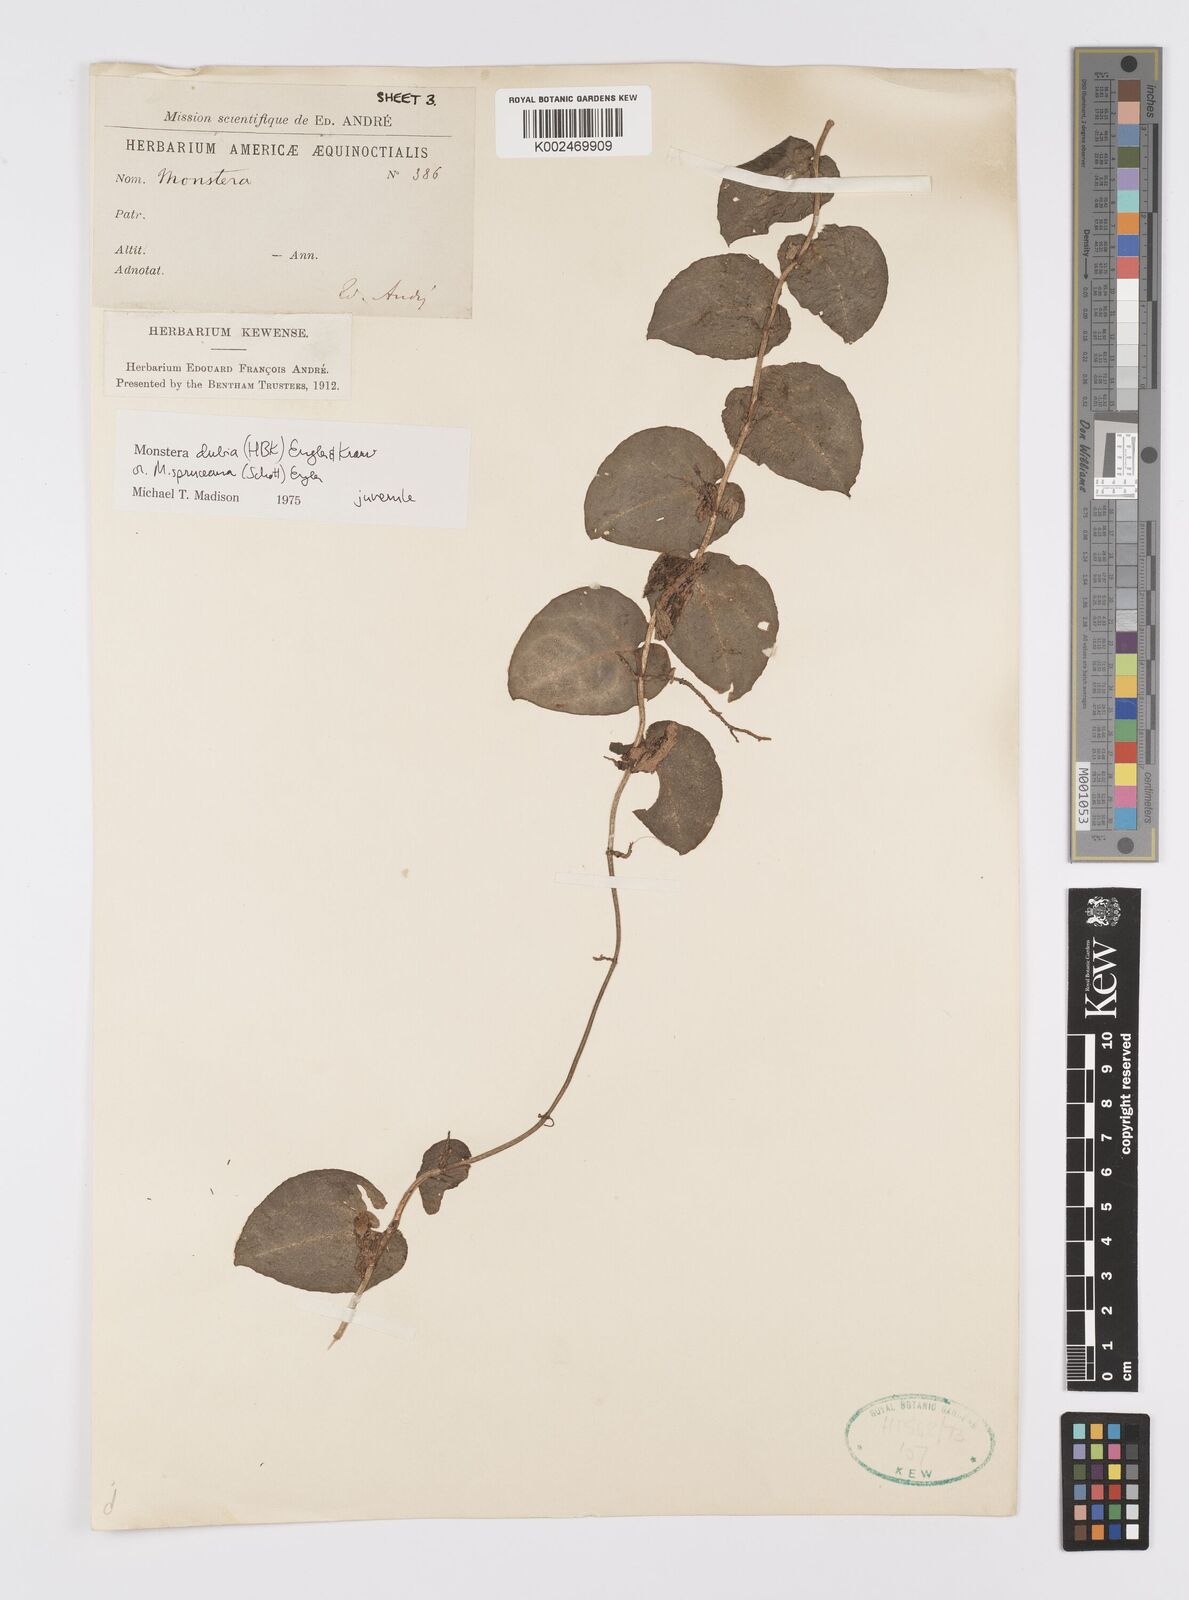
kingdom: Plantae
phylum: Tracheophyta
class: Liliopsida
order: Alismatales
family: Araceae
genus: Monstera
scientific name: Monstera dubia
